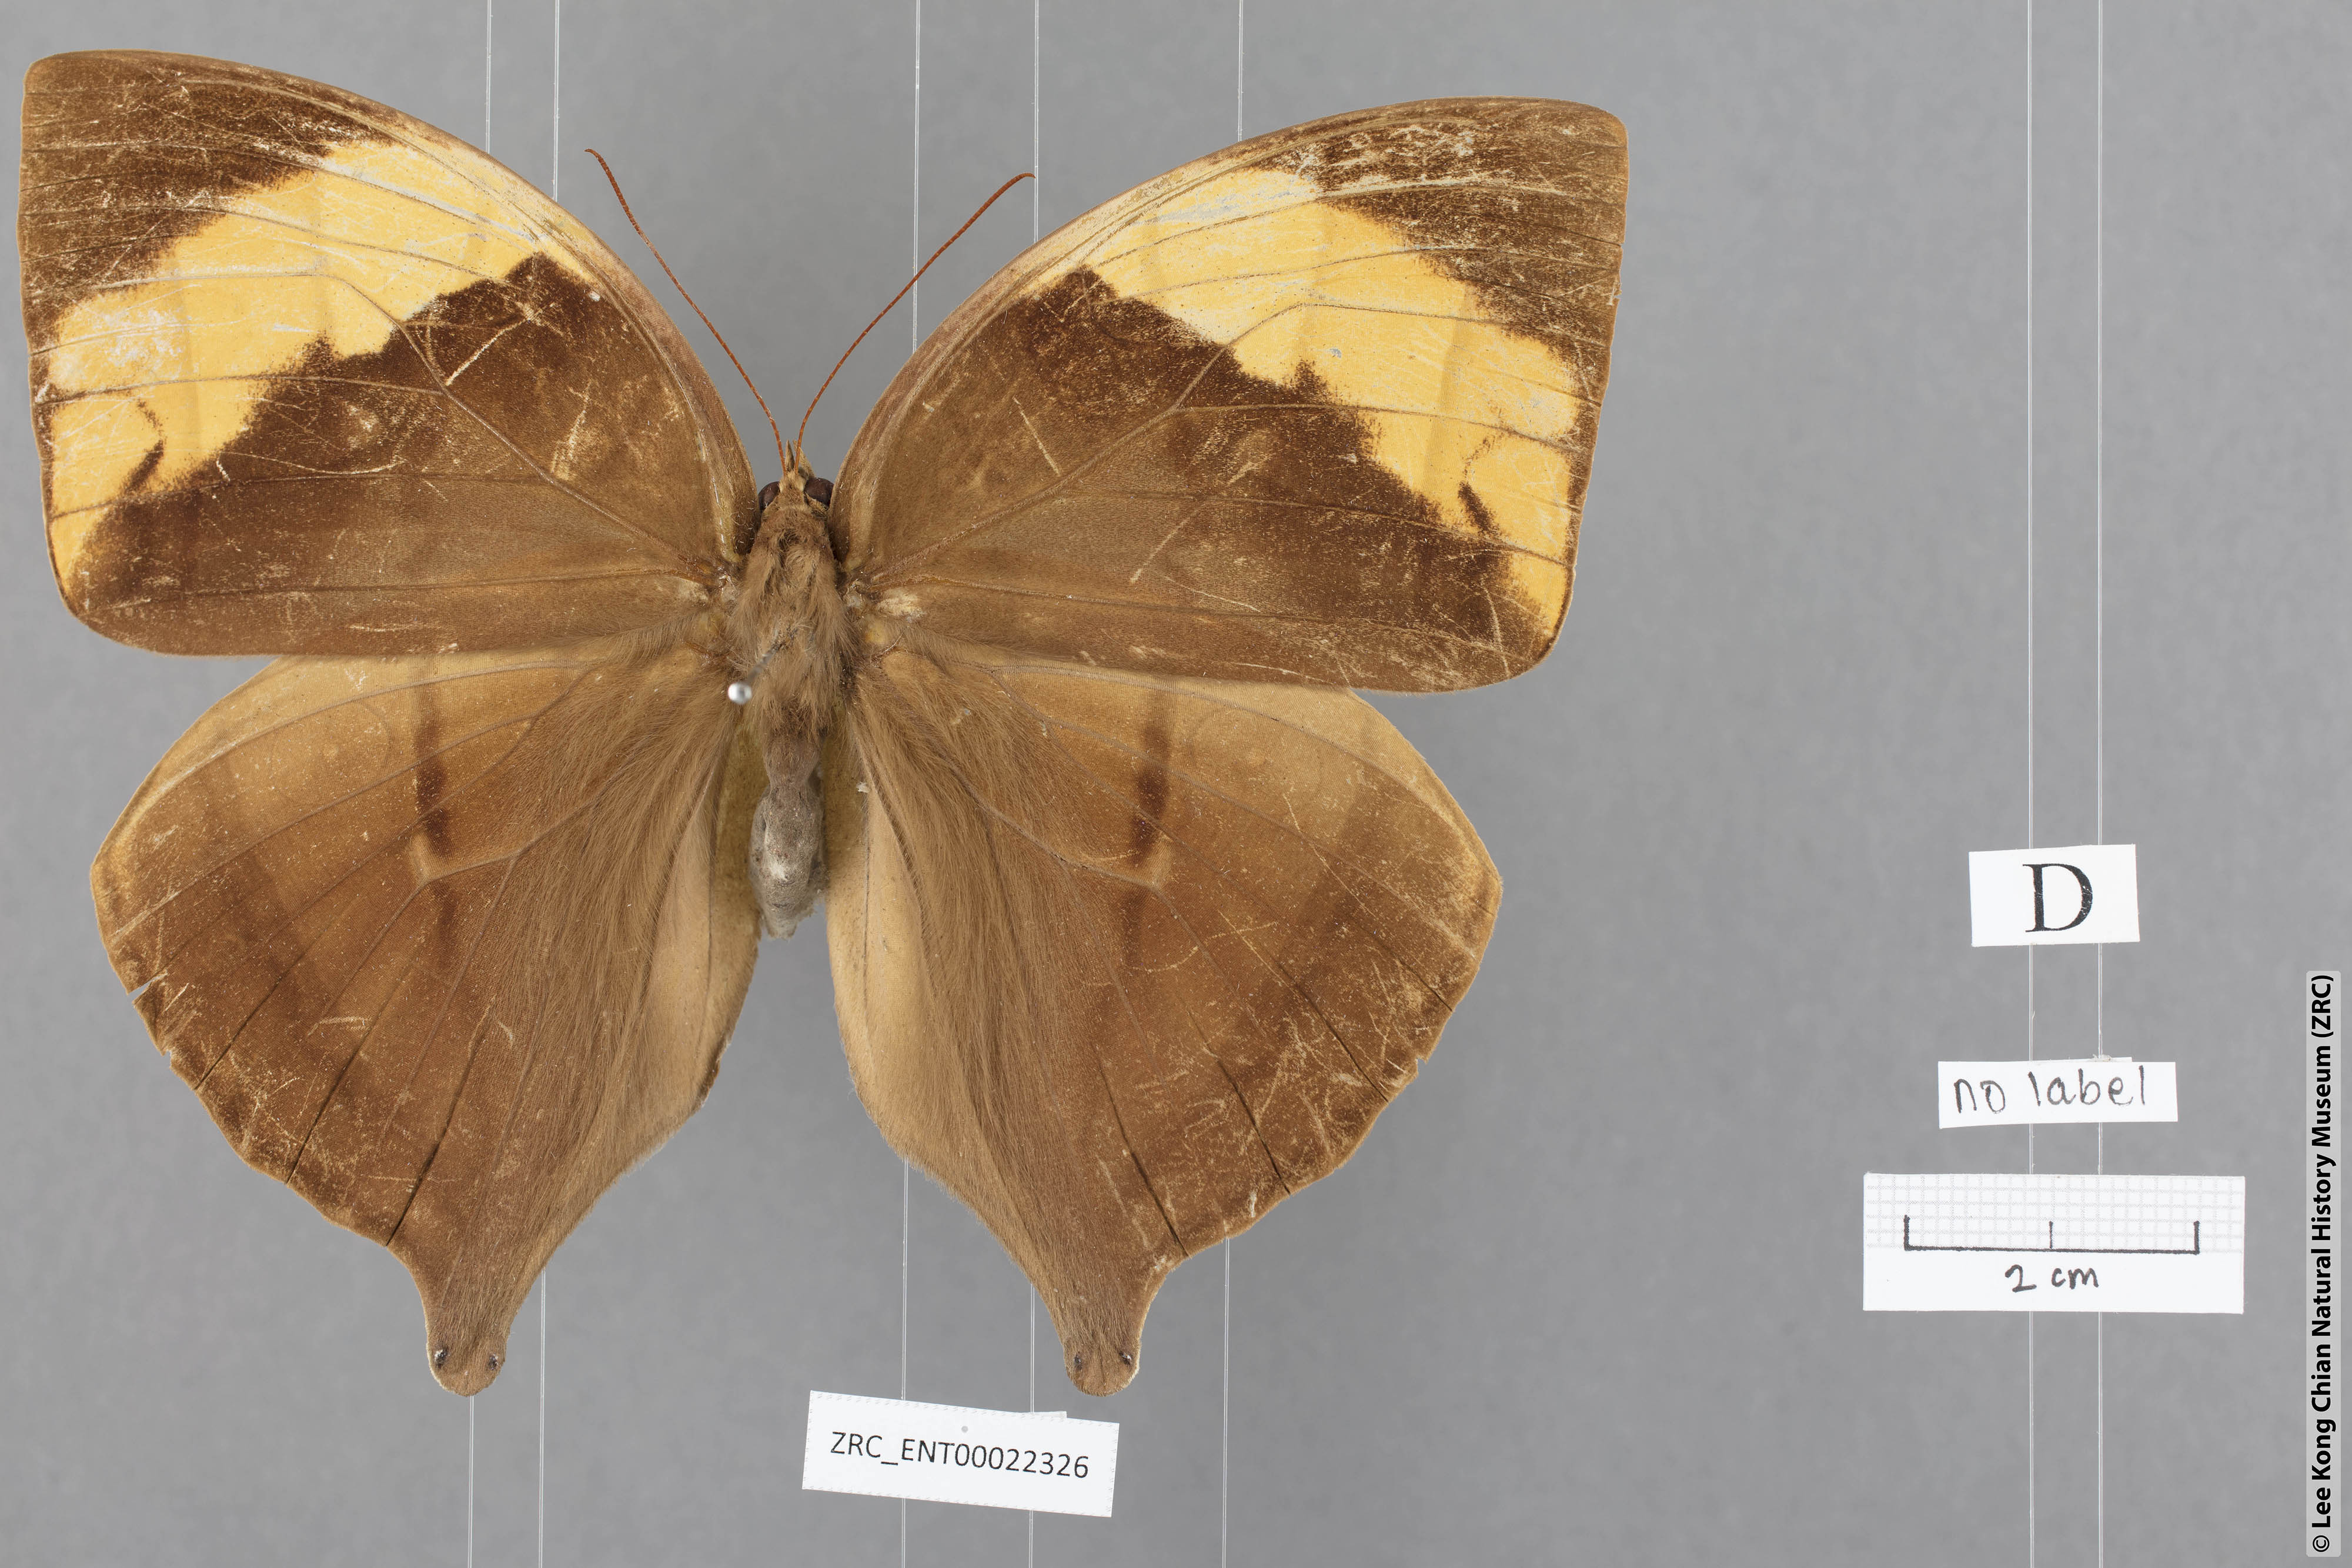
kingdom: Animalia
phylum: Arthropoda
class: Insecta
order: Lepidoptera
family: Nymphalidae
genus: Amathusia
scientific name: Amathusia
